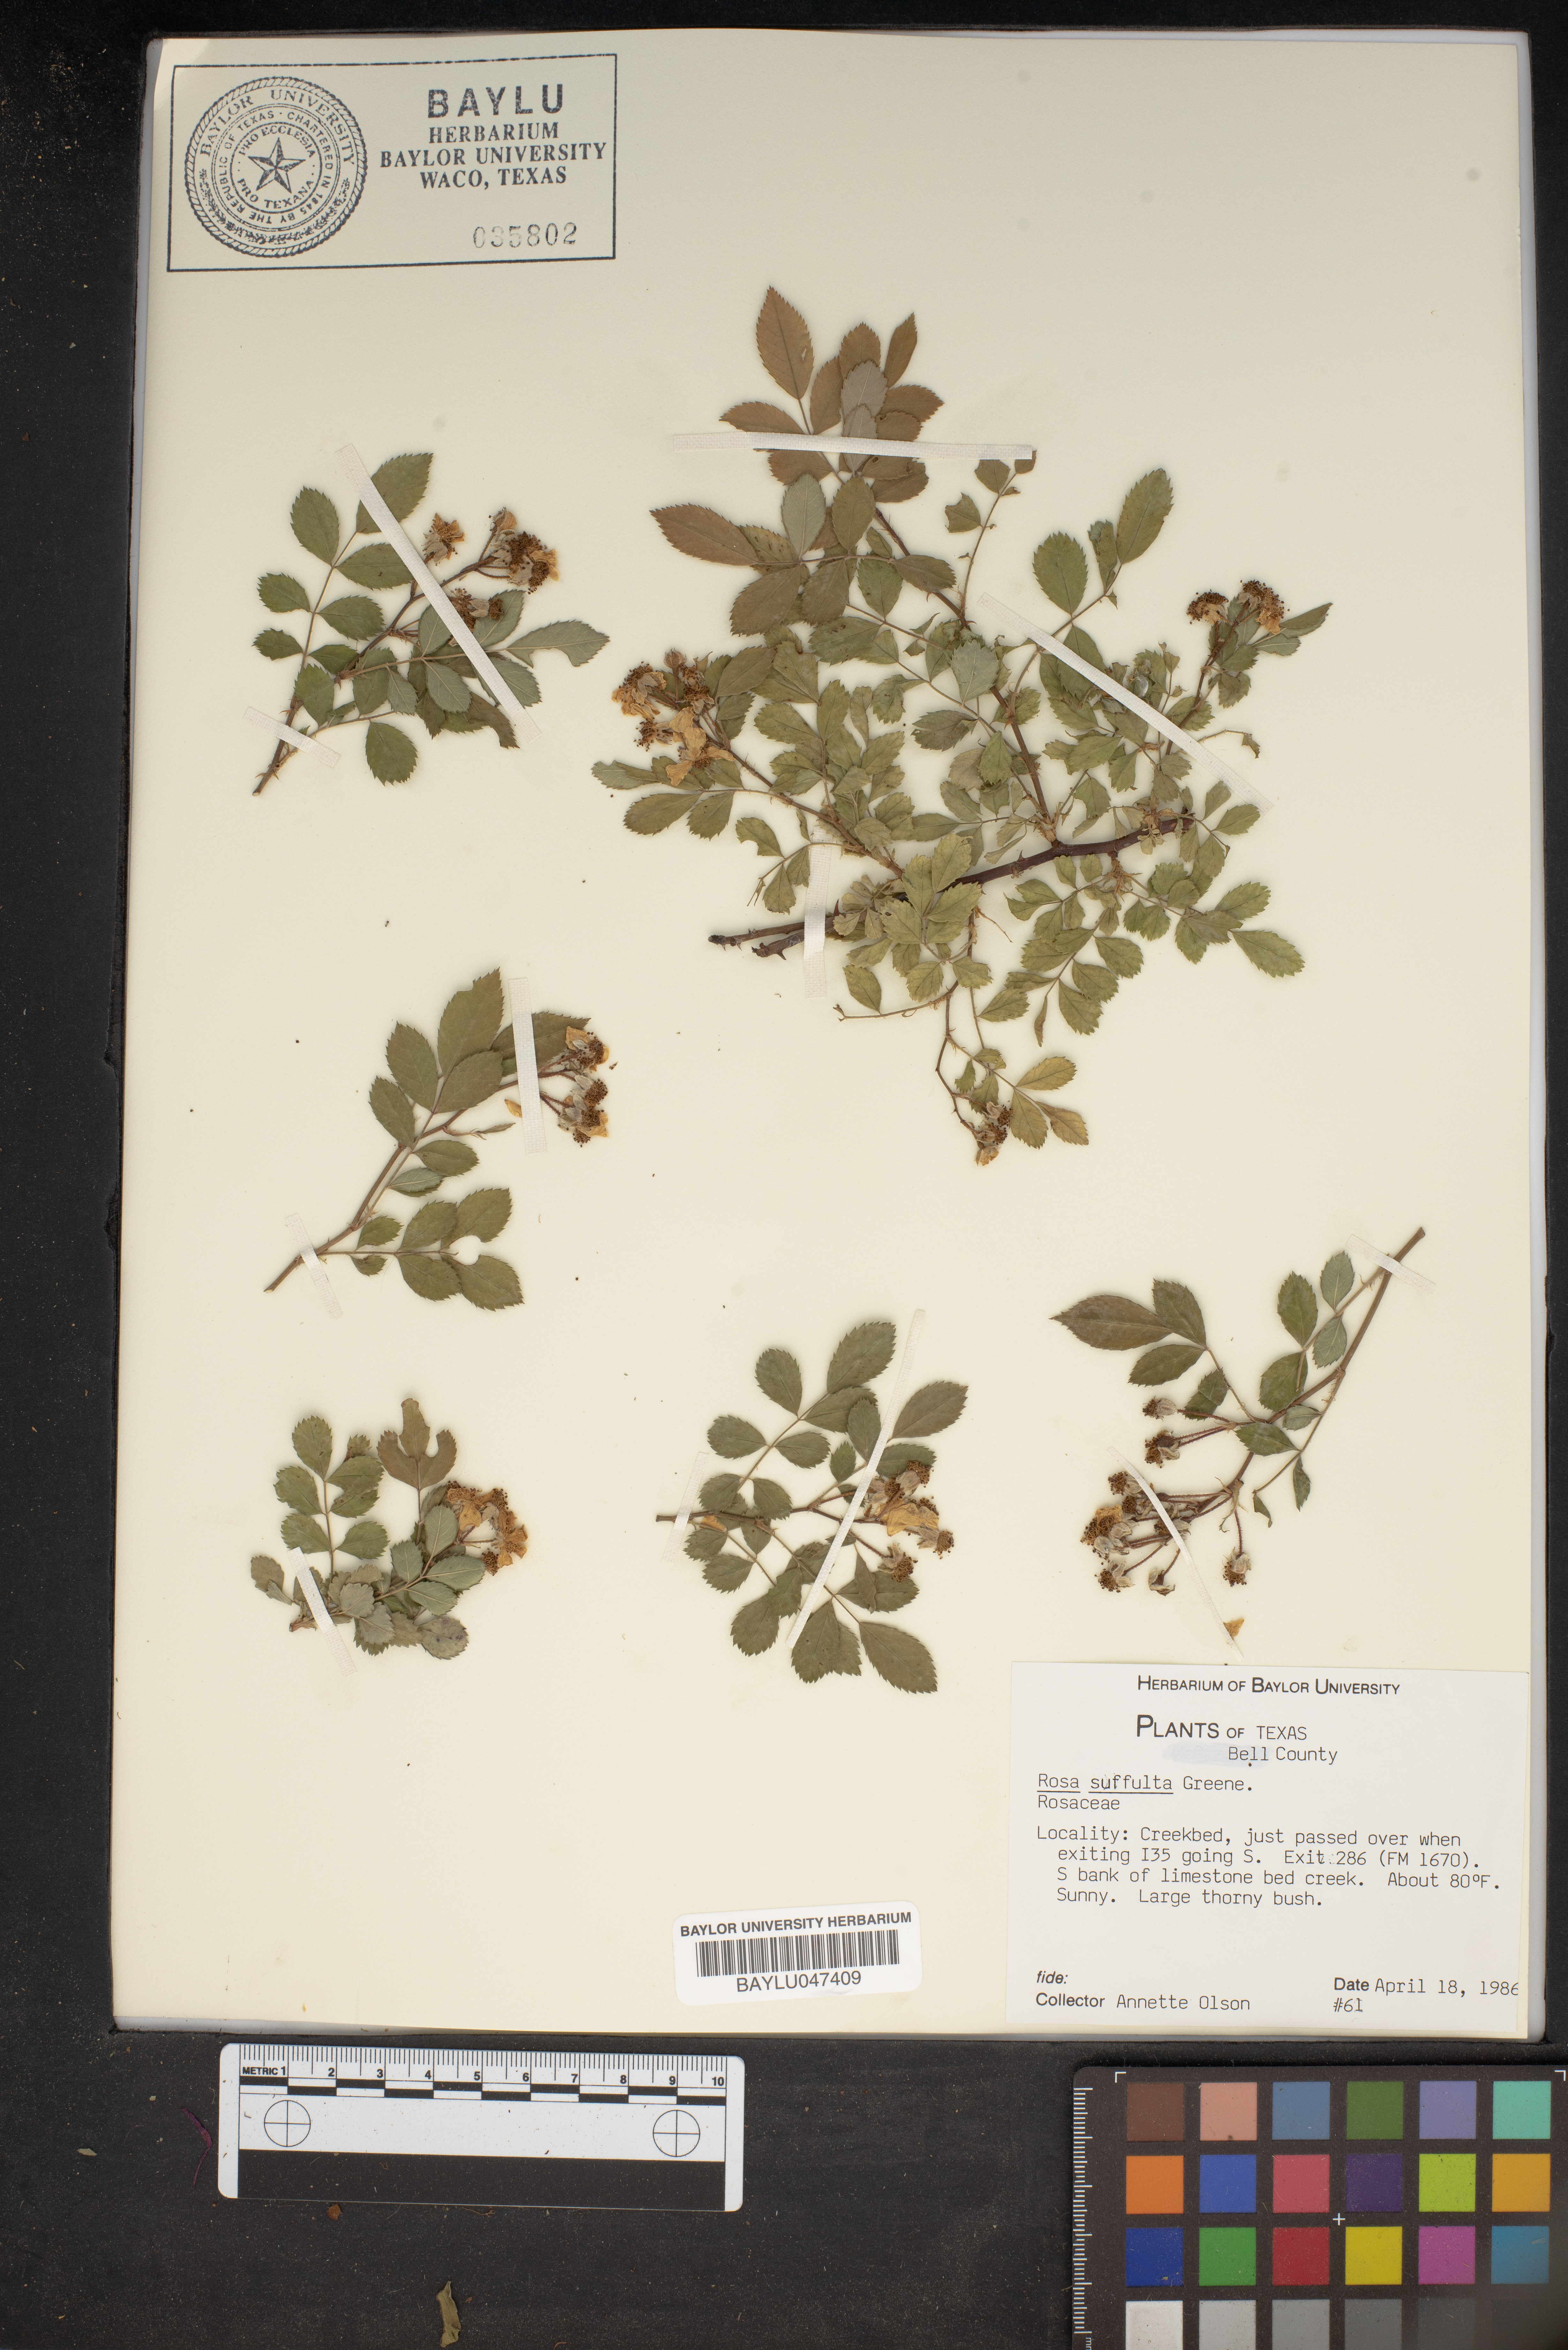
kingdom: Plantae
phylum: Tracheophyta
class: Magnoliopsida
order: Rosales
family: Rosaceae
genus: Rosa
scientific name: Rosa arkansana
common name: Prairie rose
